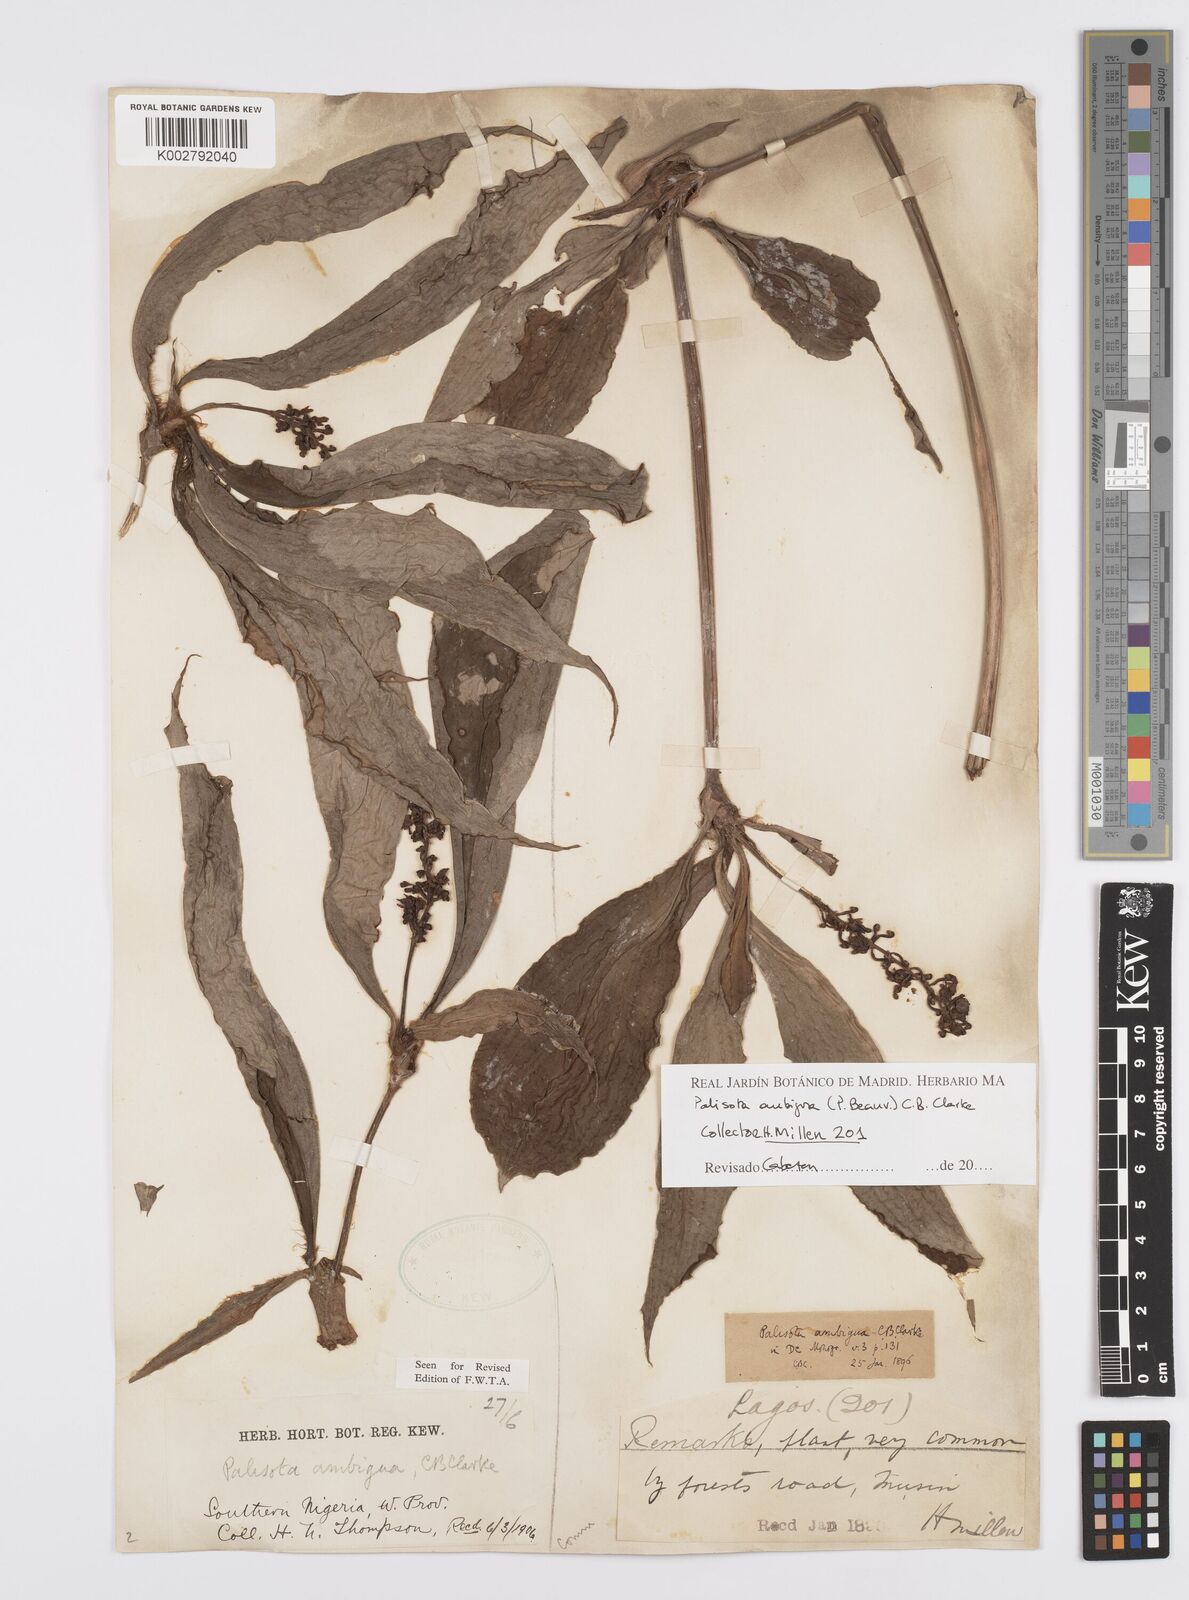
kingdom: Plantae
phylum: Tracheophyta
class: Liliopsida
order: Commelinales
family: Commelinaceae
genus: Palisota
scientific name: Palisota ambigua
